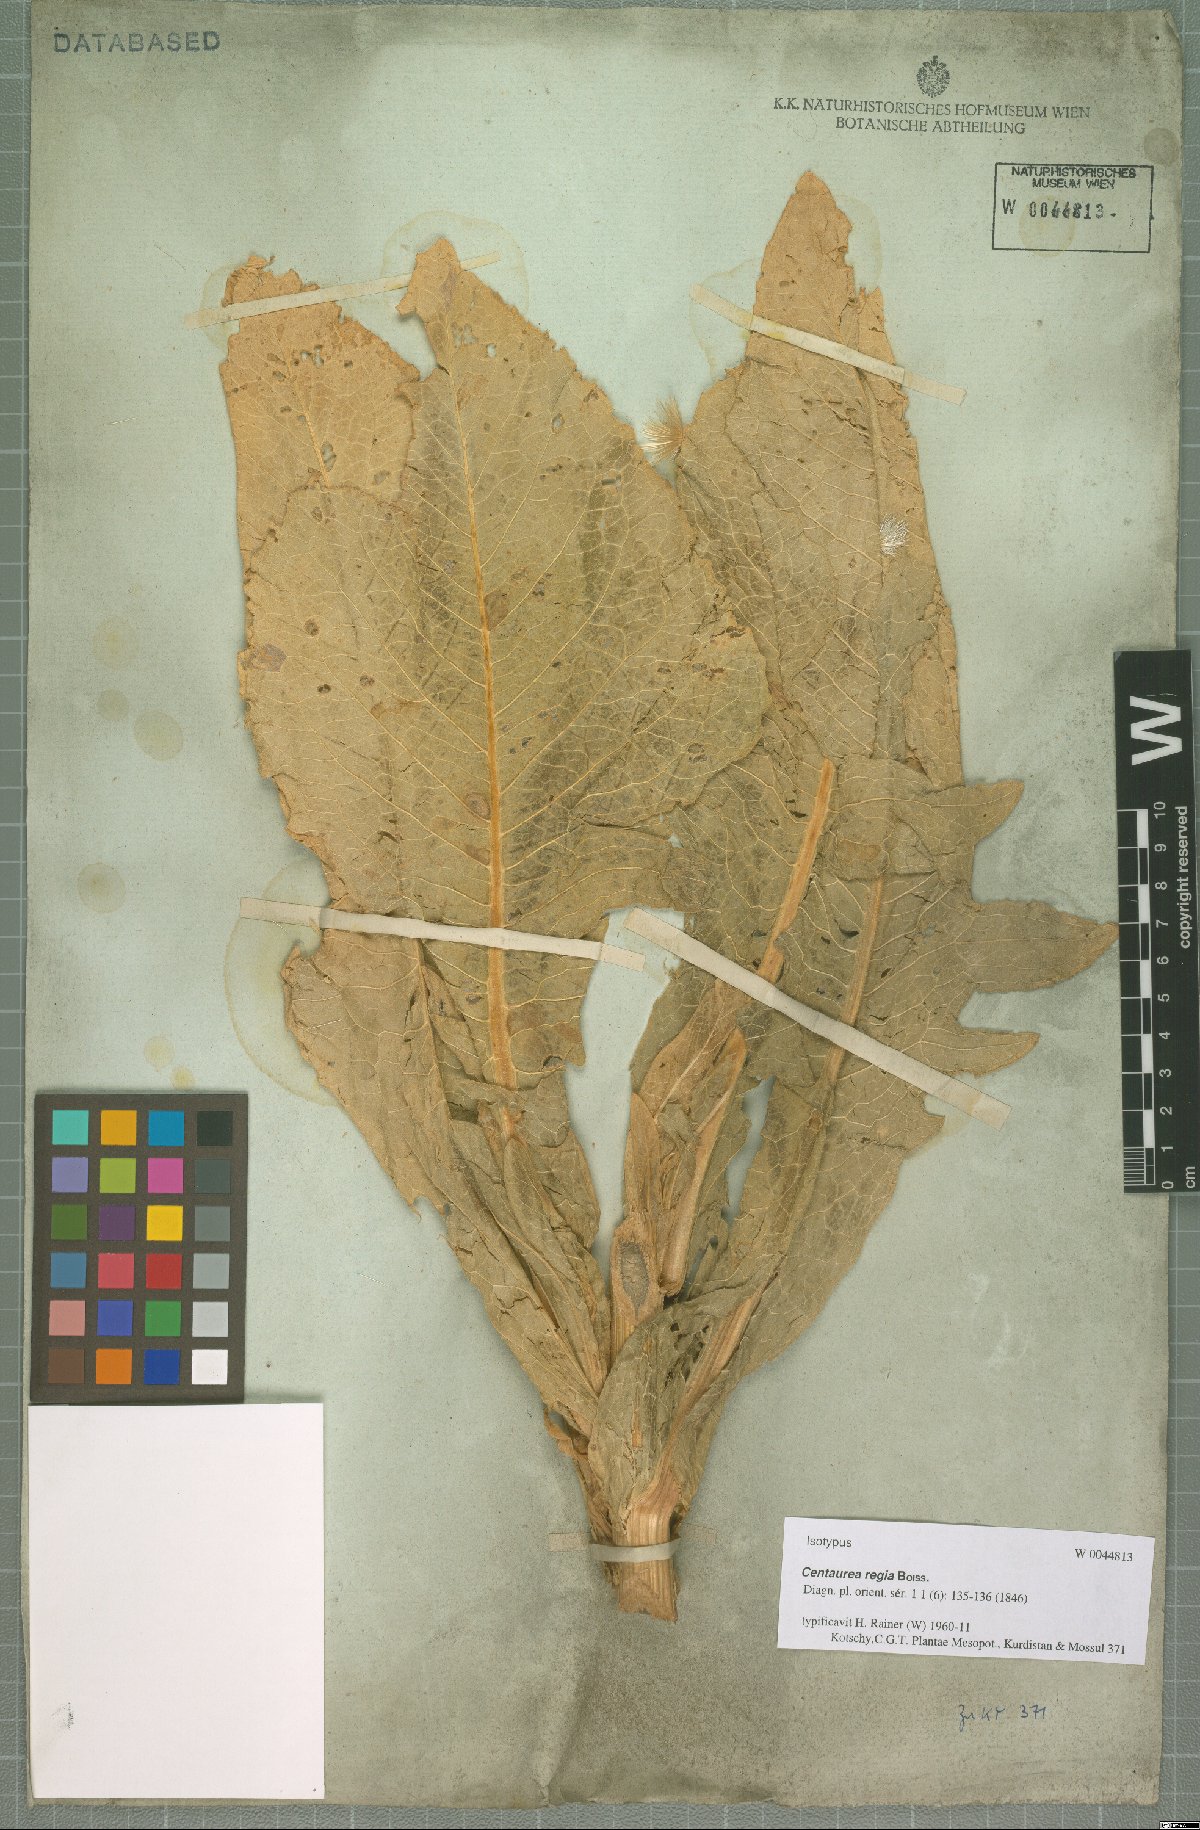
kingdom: Plantae
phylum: Tracheophyta
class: Magnoliopsida
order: Asterales
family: Asteraceae
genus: Centaurea
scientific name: Centaurea regia
